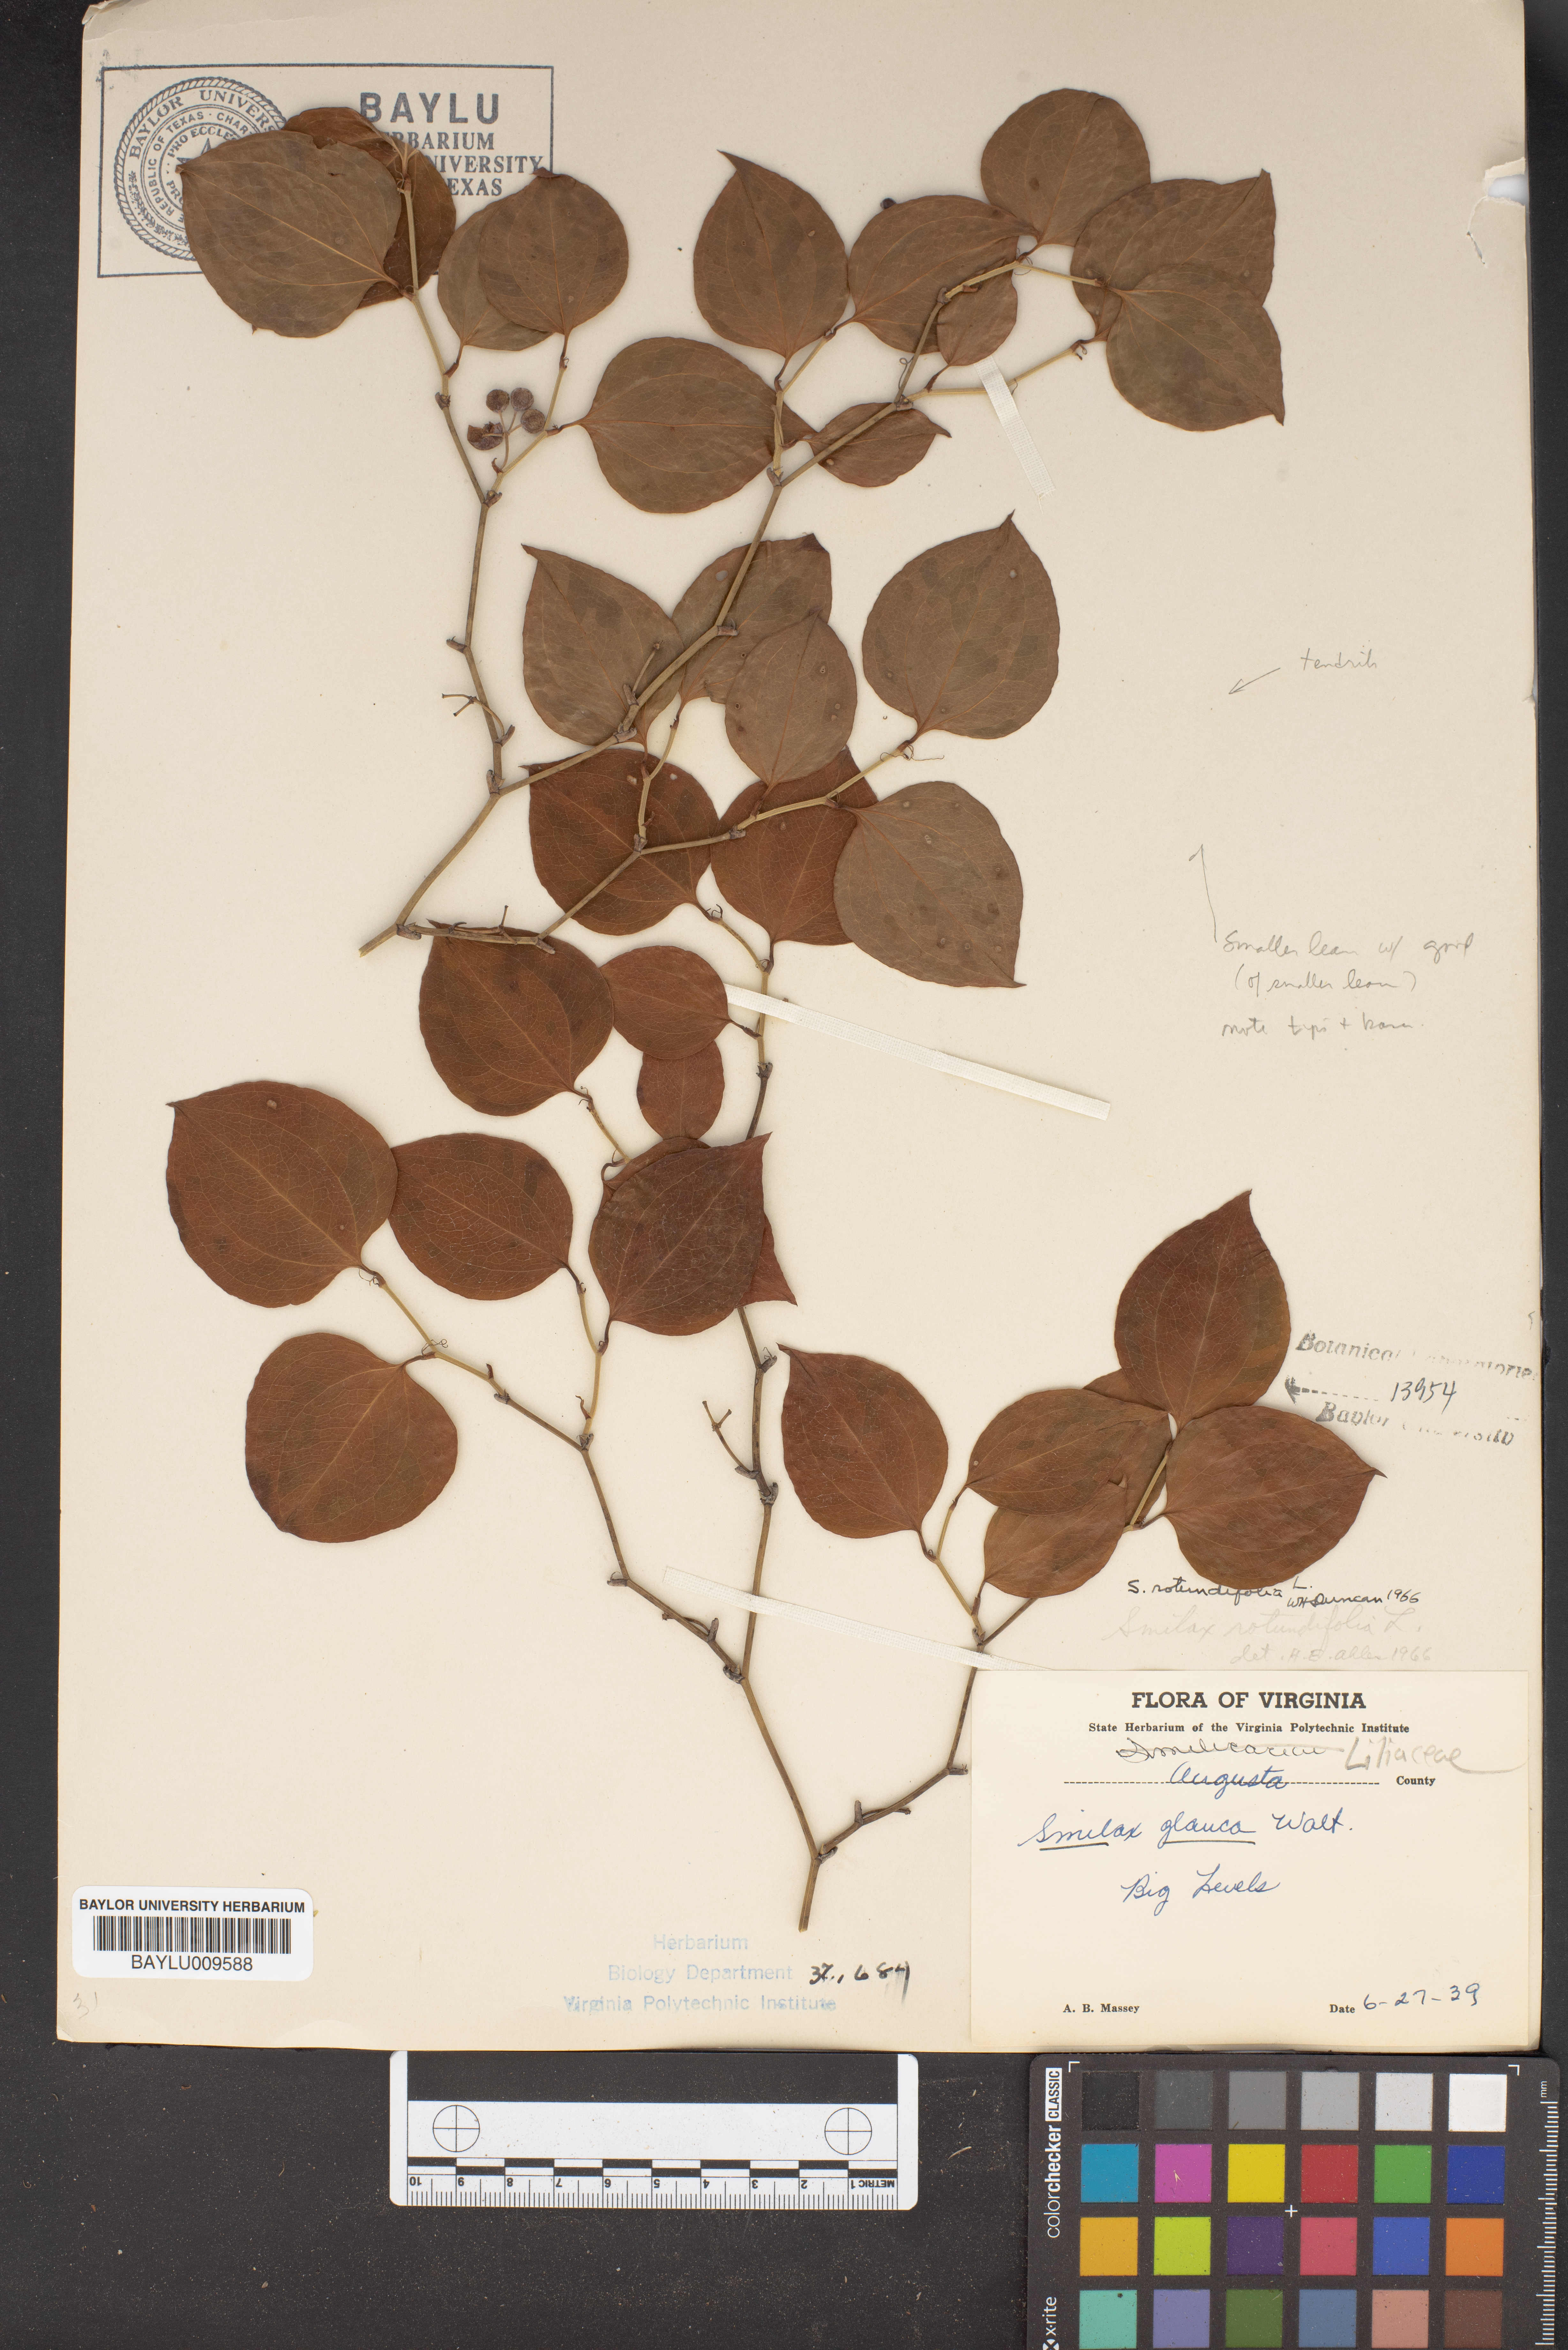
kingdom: Plantae
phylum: Tracheophyta
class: Liliopsida
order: Liliales
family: Smilacaceae
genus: Smilax
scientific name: Smilax glauca
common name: Cat greenbrier
